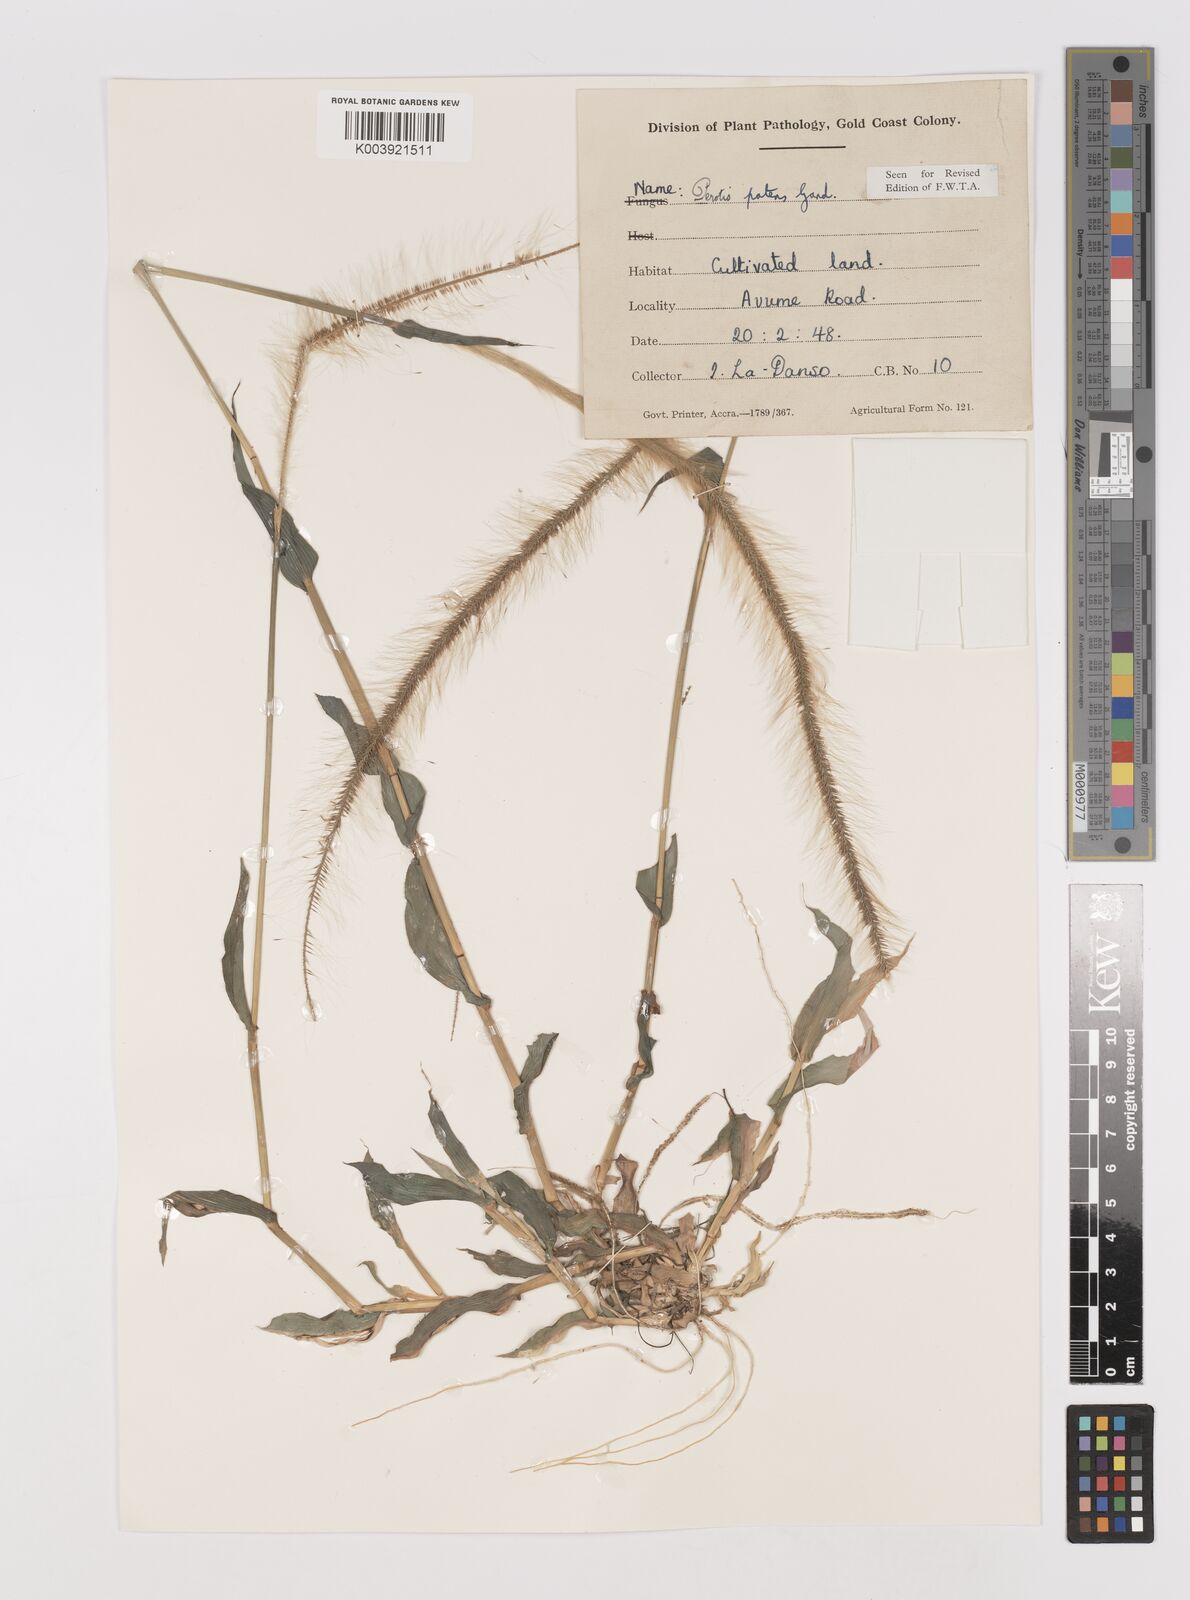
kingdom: Plantae
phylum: Tracheophyta
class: Liliopsida
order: Poales
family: Poaceae
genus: Perotis
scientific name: Perotis patens
